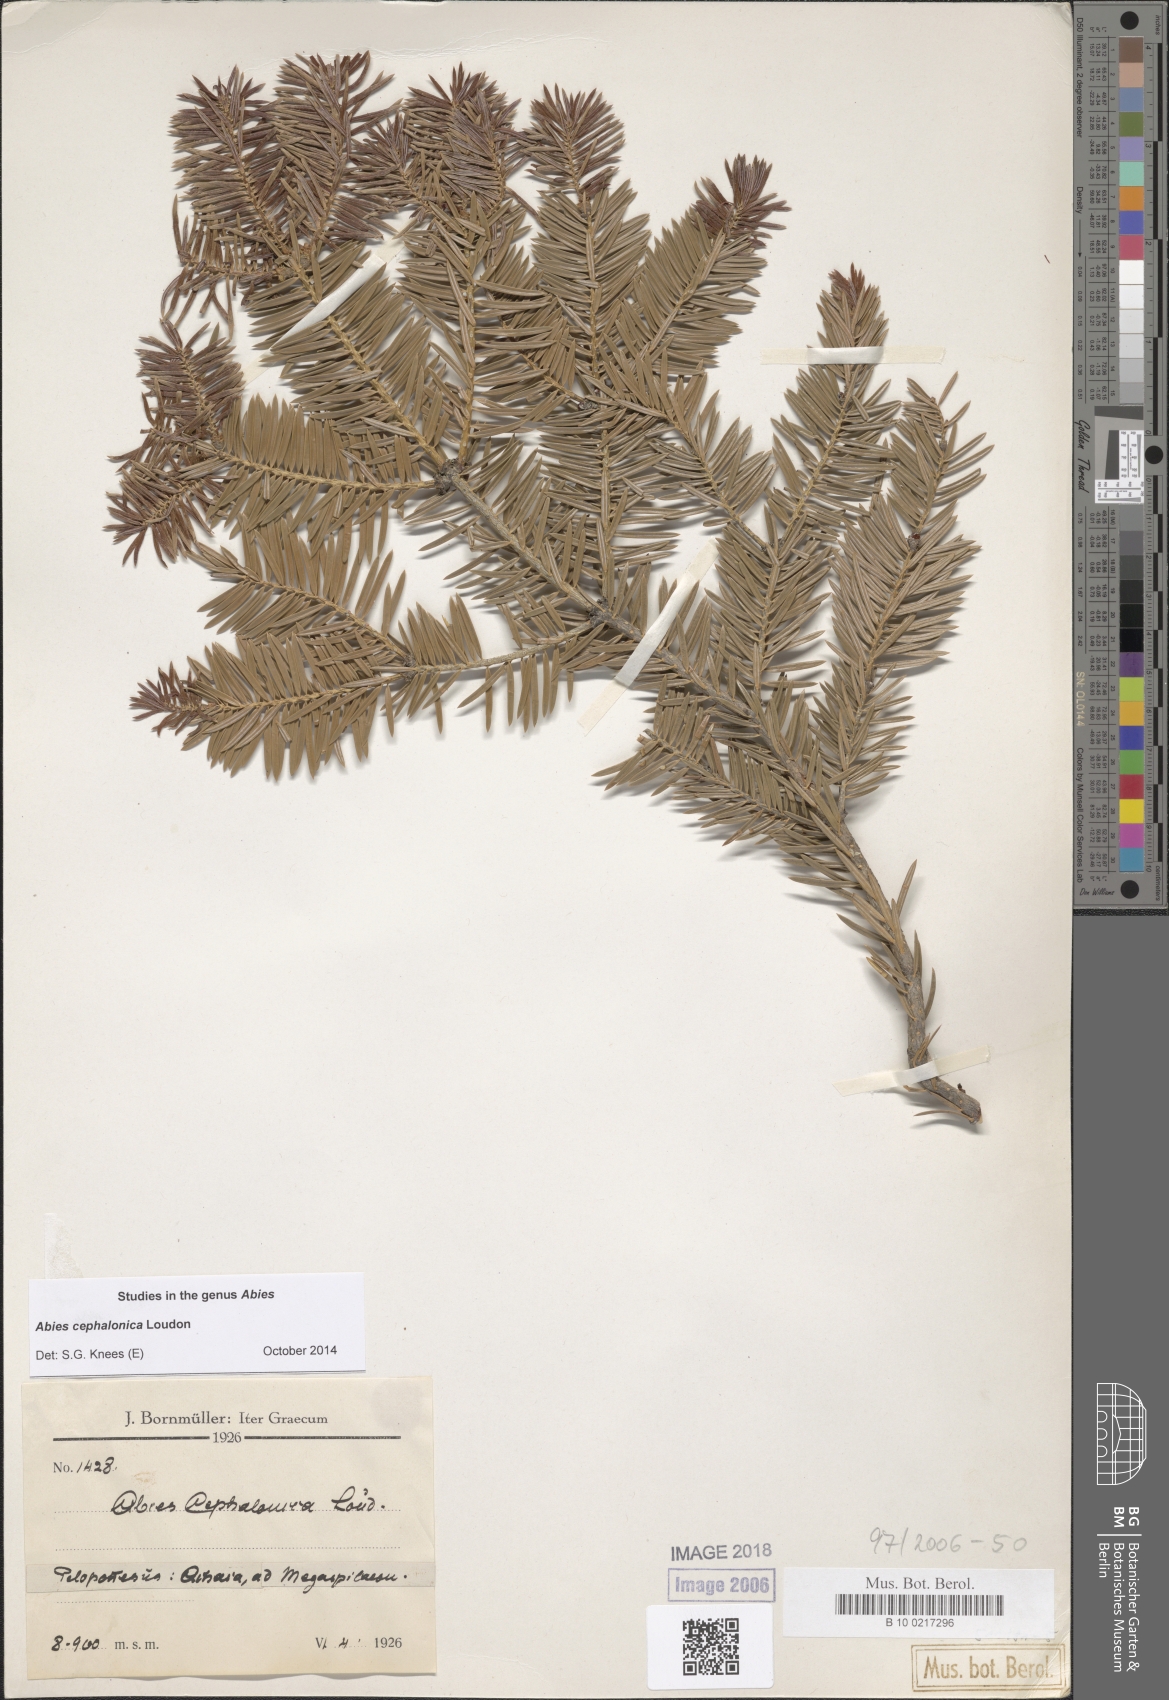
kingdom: Plantae
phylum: Tracheophyta
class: Pinopsida
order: Pinales
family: Pinaceae
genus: Abies
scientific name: Abies cephalonica
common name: Greek fir
